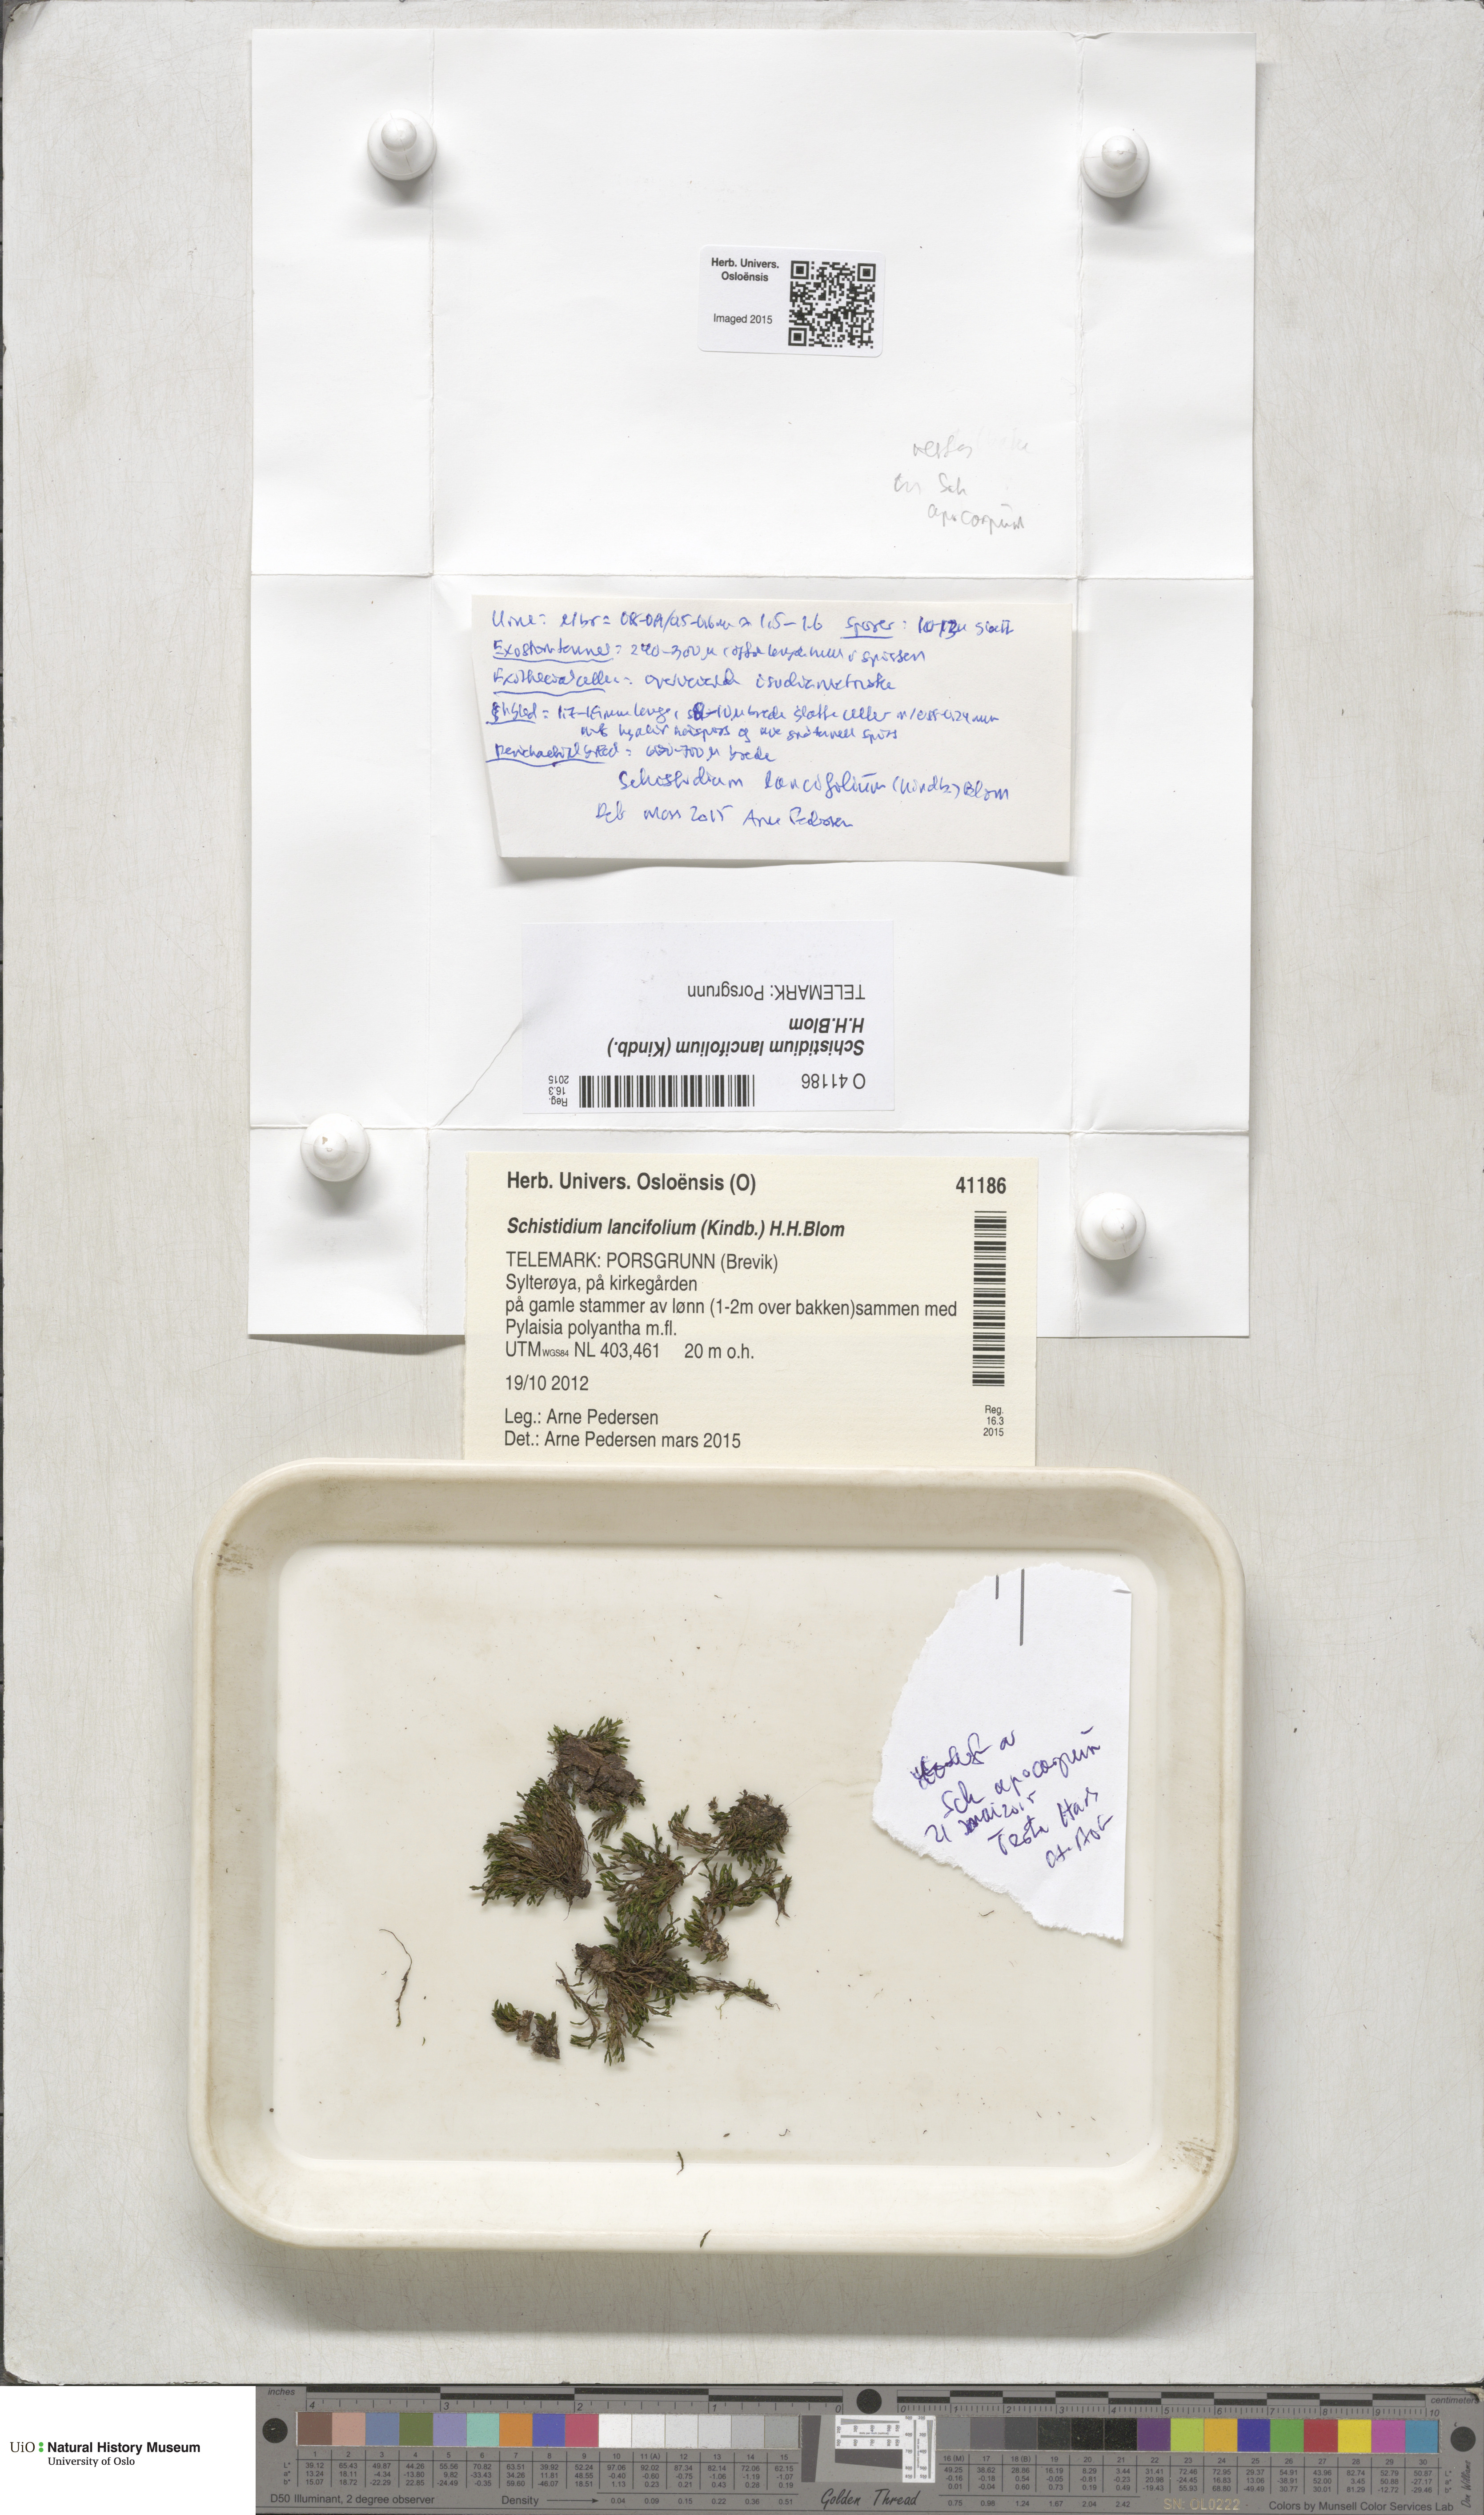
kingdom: Plantae
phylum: Bryophyta
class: Bryopsida
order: Grimmiales
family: Grimmiaceae
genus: Schistidium
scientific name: Schistidium lancifolium
